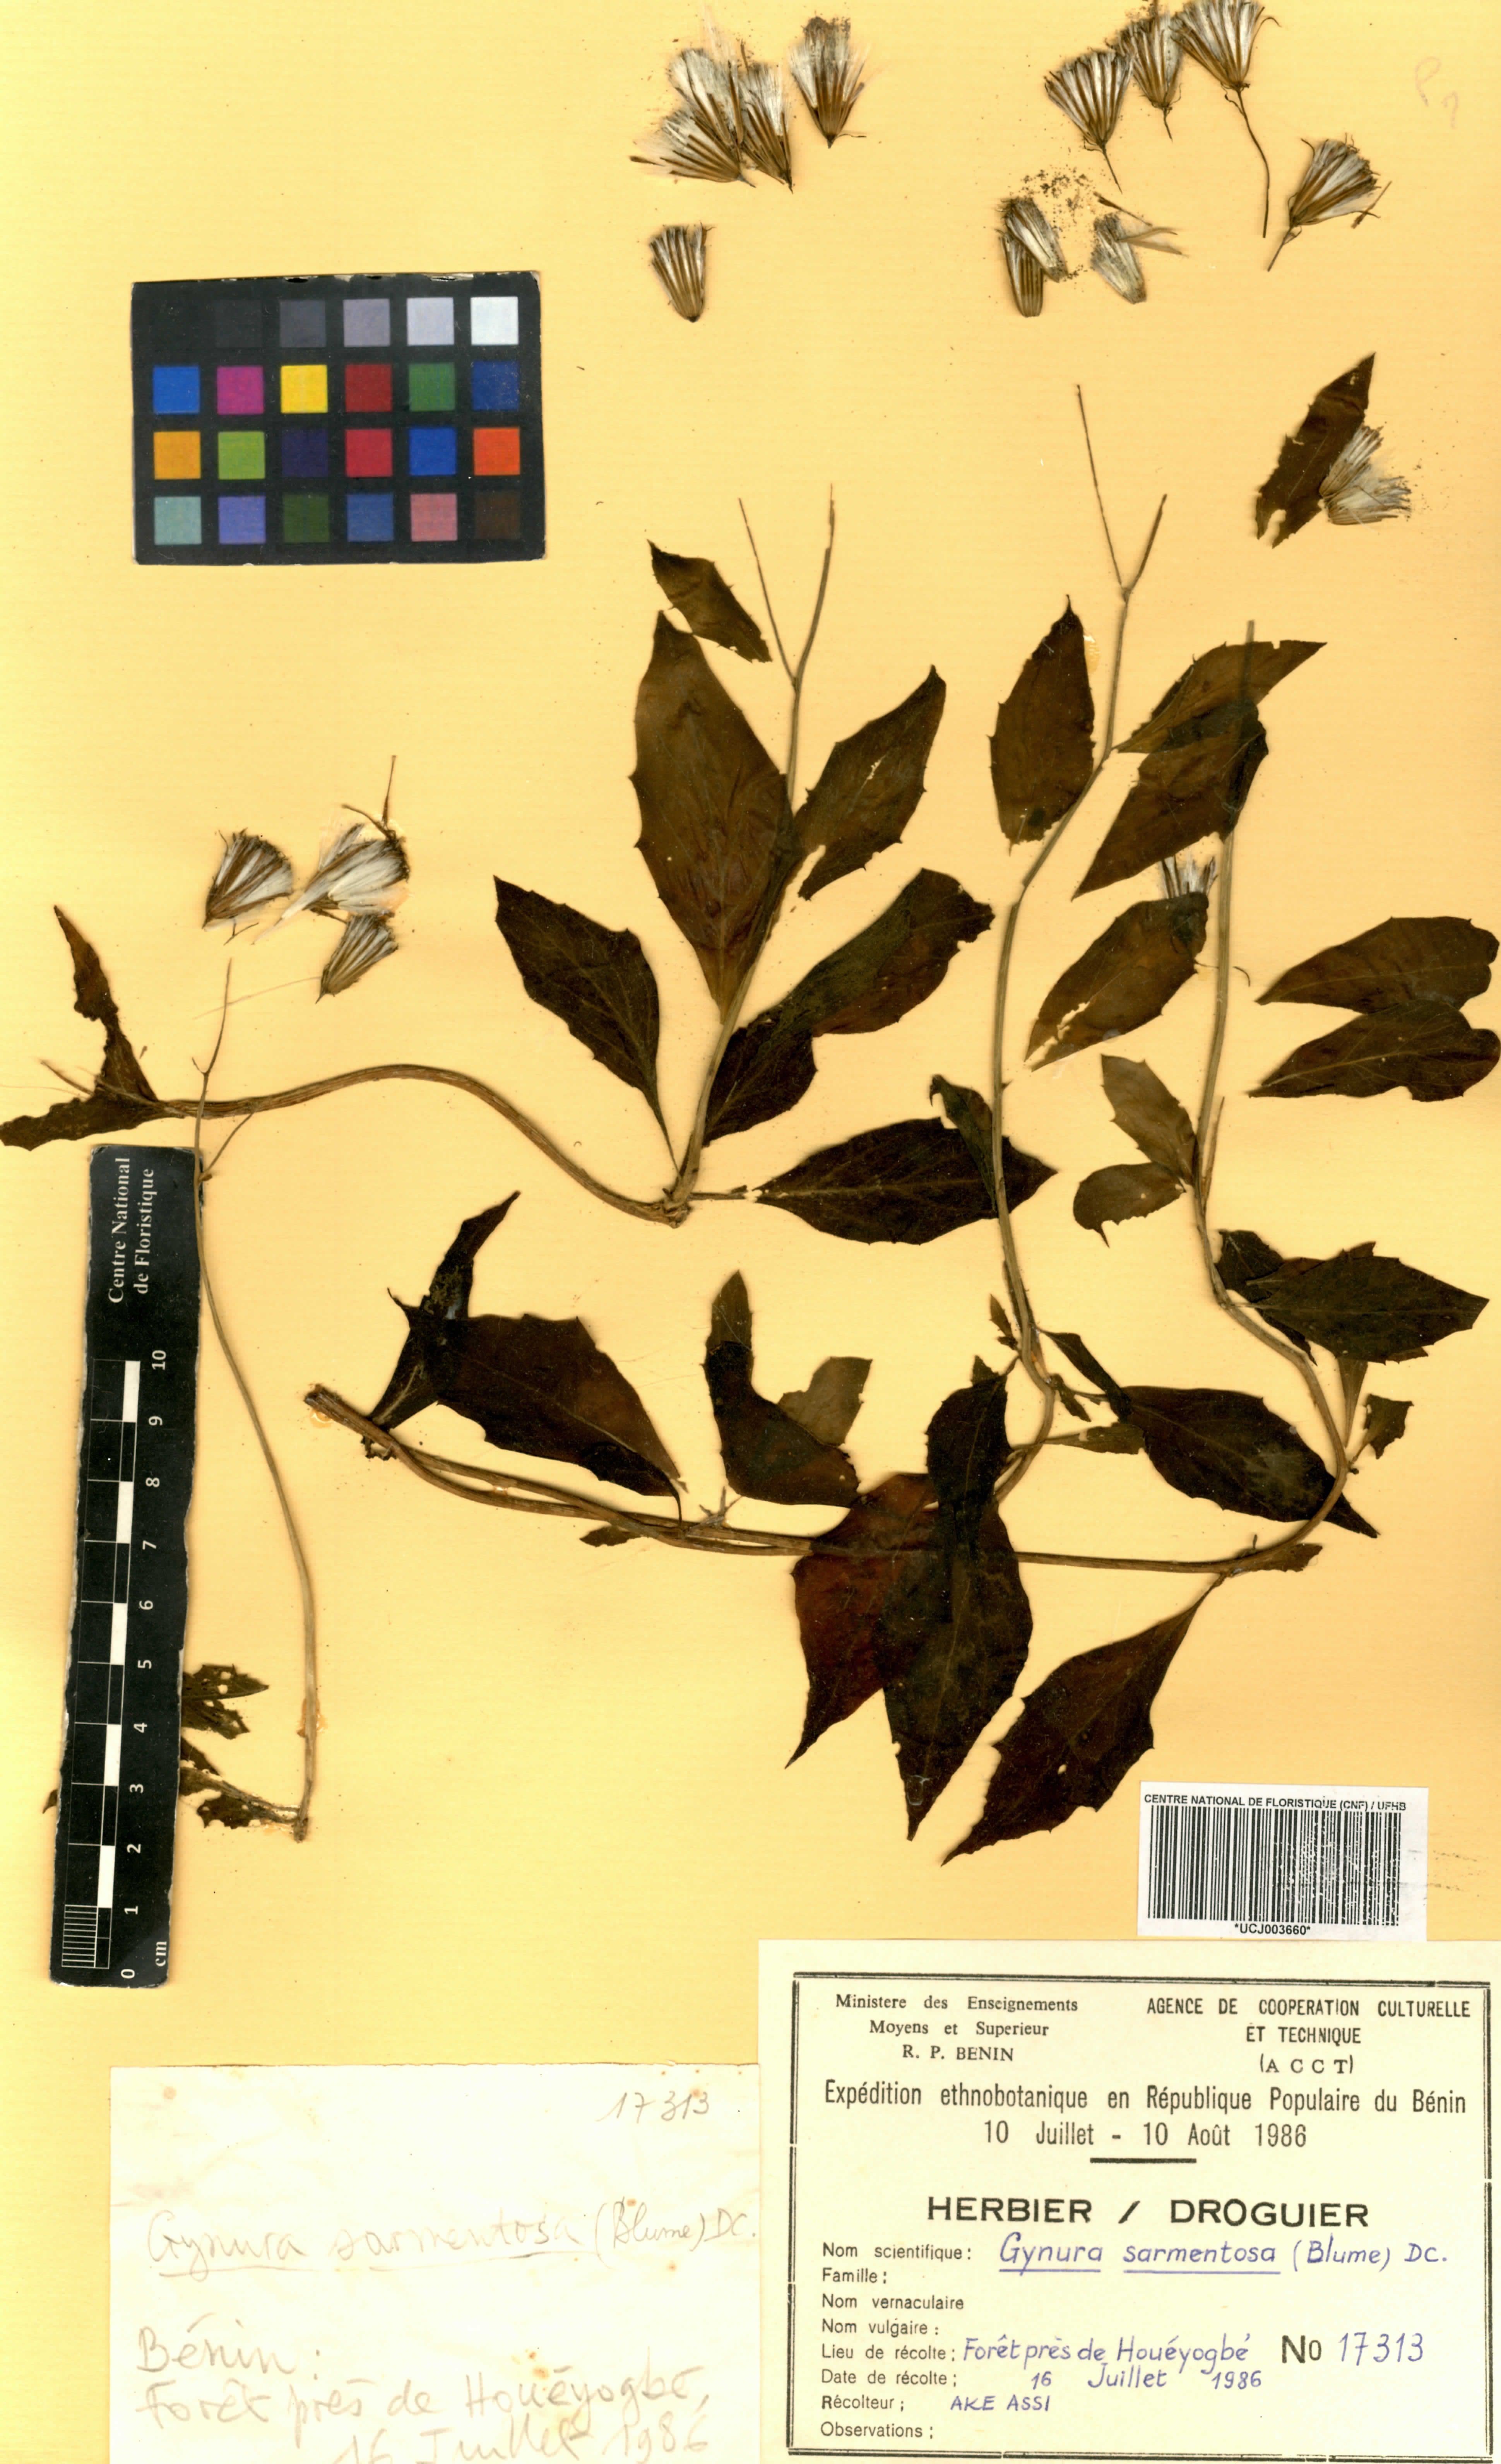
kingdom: Plantae
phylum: Tracheophyta
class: Magnoliopsida
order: Asterales
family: Asteraceae
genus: Gynura
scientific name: Gynura procumbens
